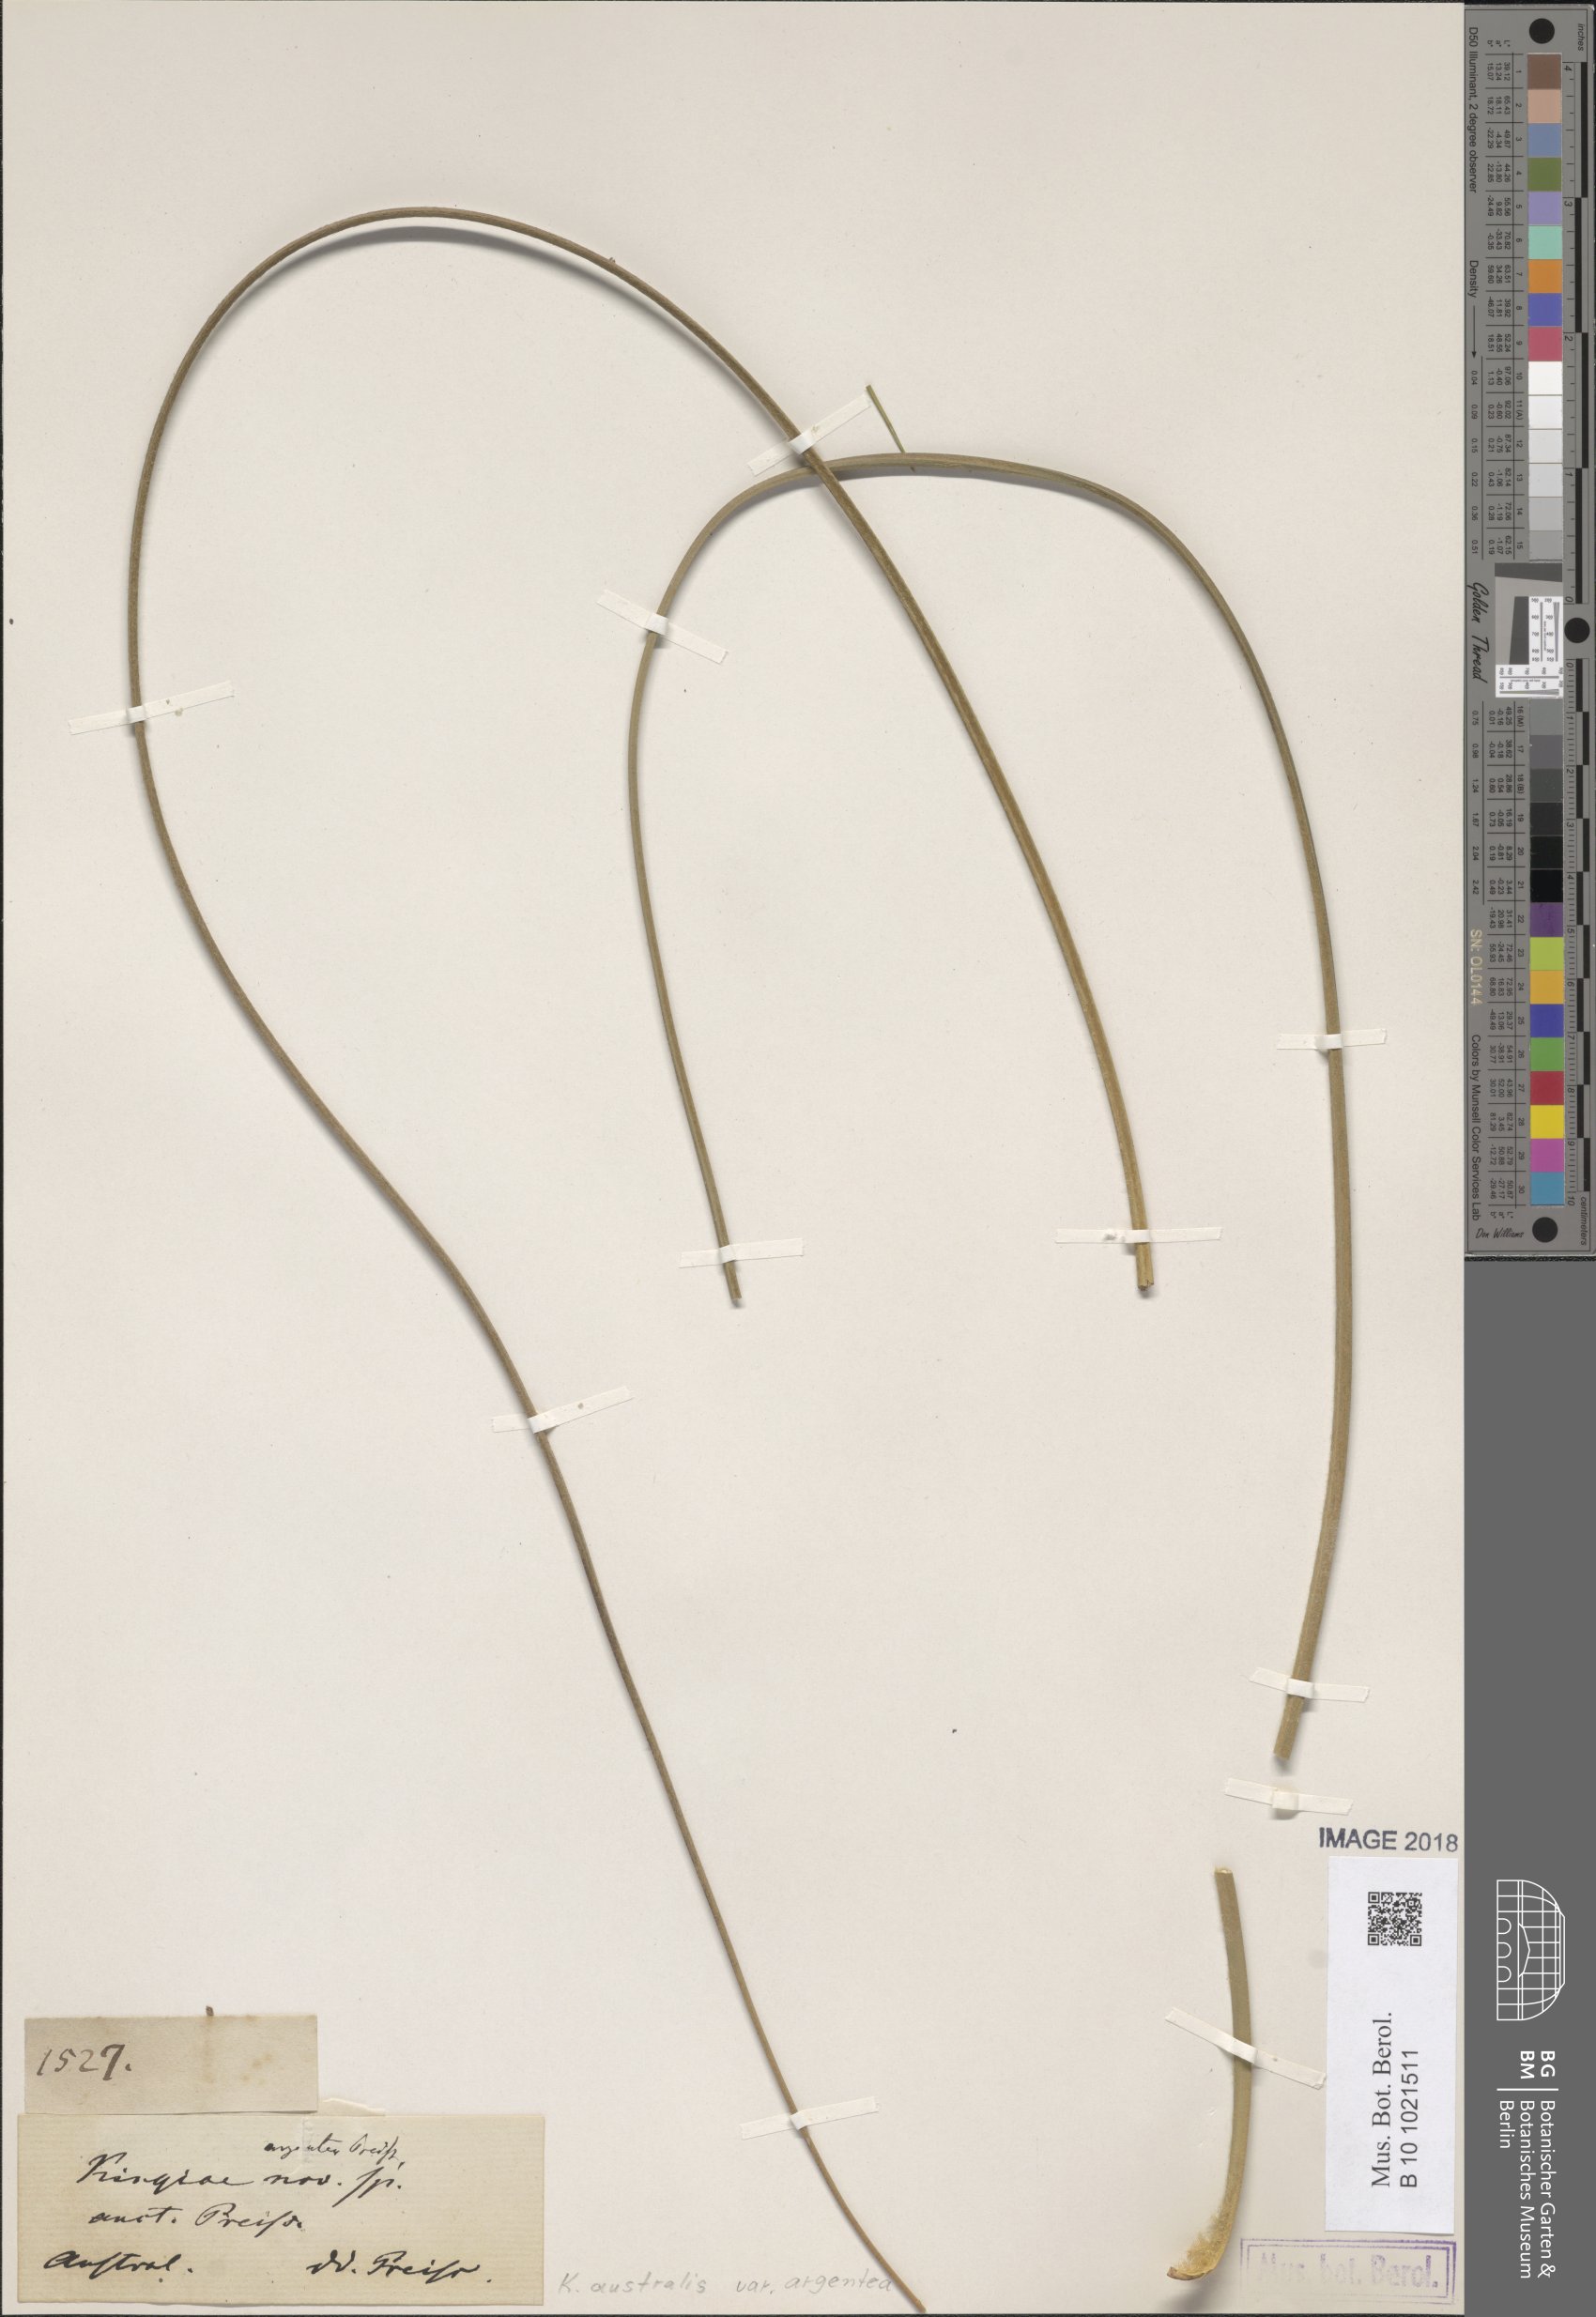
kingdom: Plantae
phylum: Tracheophyta
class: Liliopsida
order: Arecales
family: Dasypogonaceae
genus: Kingia
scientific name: Kingia australis
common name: Black gin
